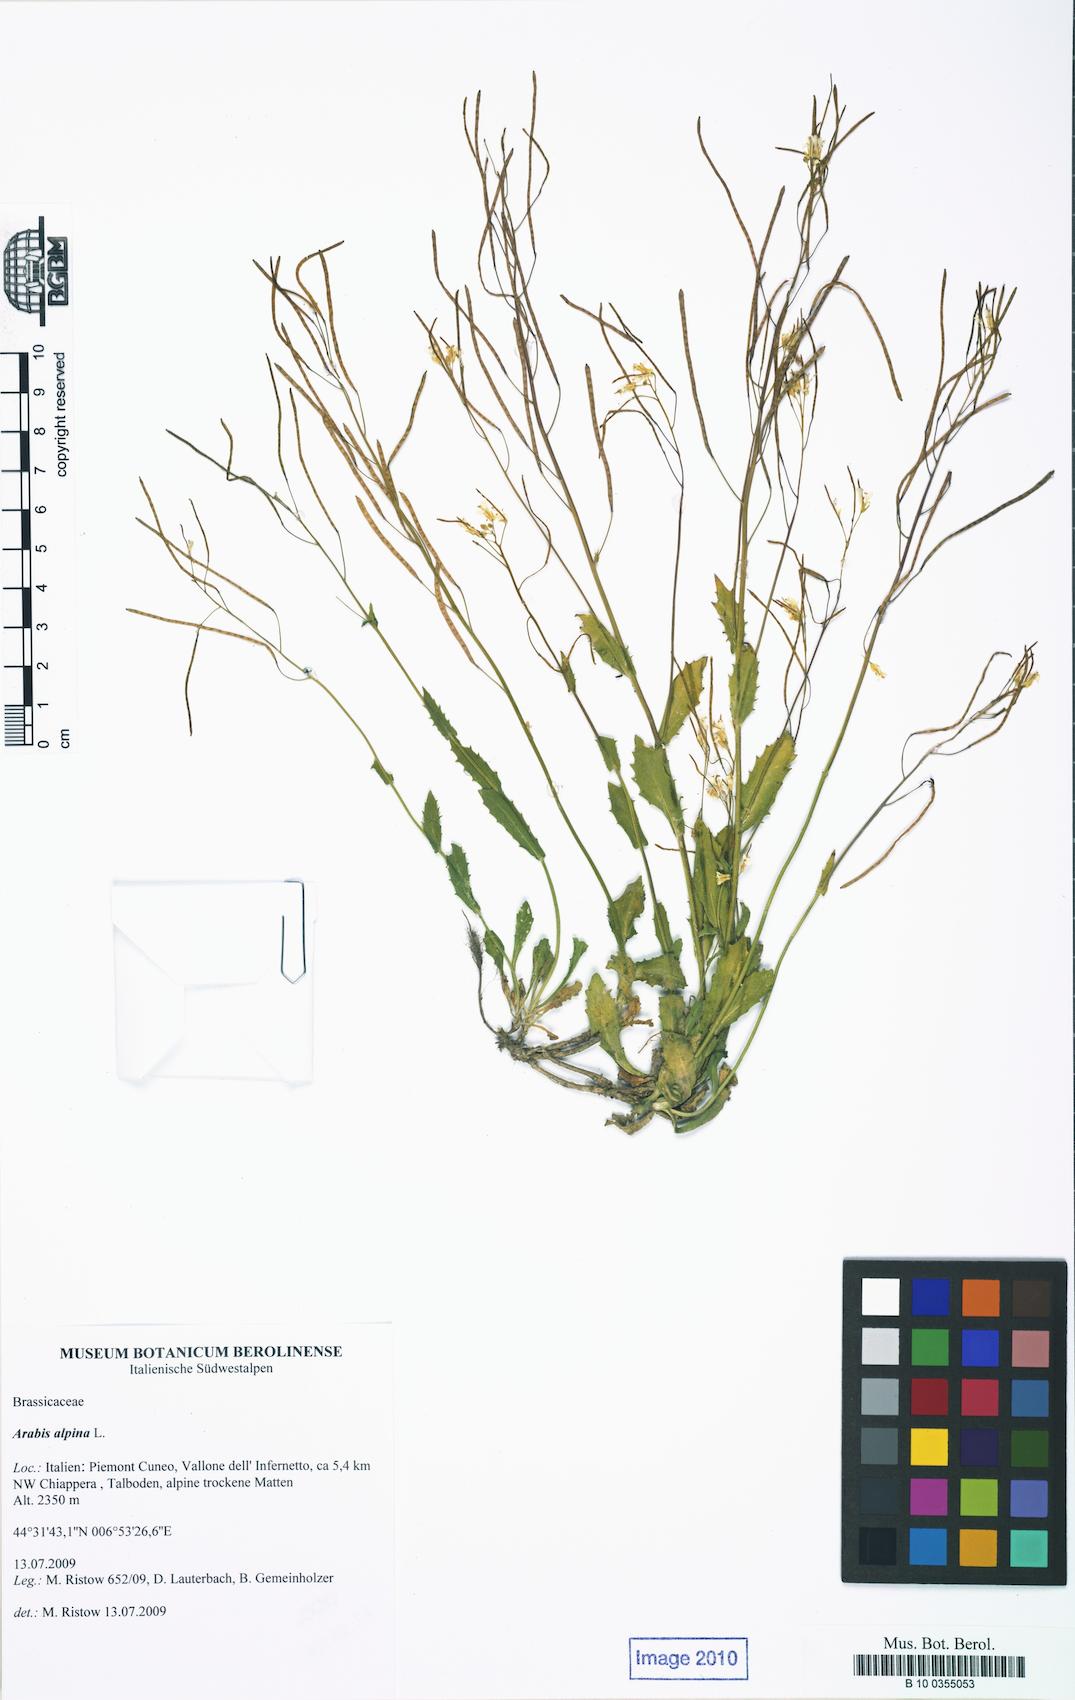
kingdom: Plantae
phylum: Tracheophyta
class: Magnoliopsida
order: Brassicales
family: Brassicaceae
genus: Arabis
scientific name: Arabis alpina
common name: Alpine rock-cress
